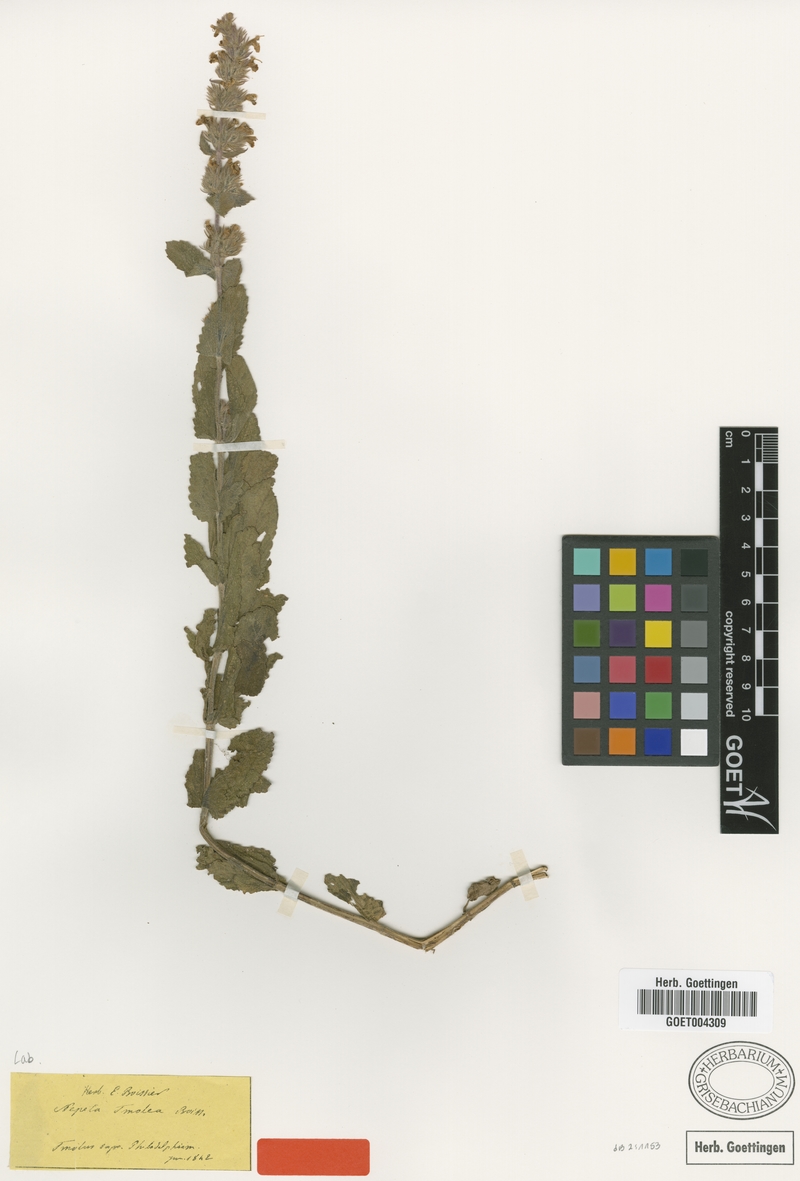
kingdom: Plantae
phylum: Tracheophyta
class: Magnoliopsida
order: Lamiales
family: Lamiaceae
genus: Nepeta
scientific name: Nepeta tmolea
